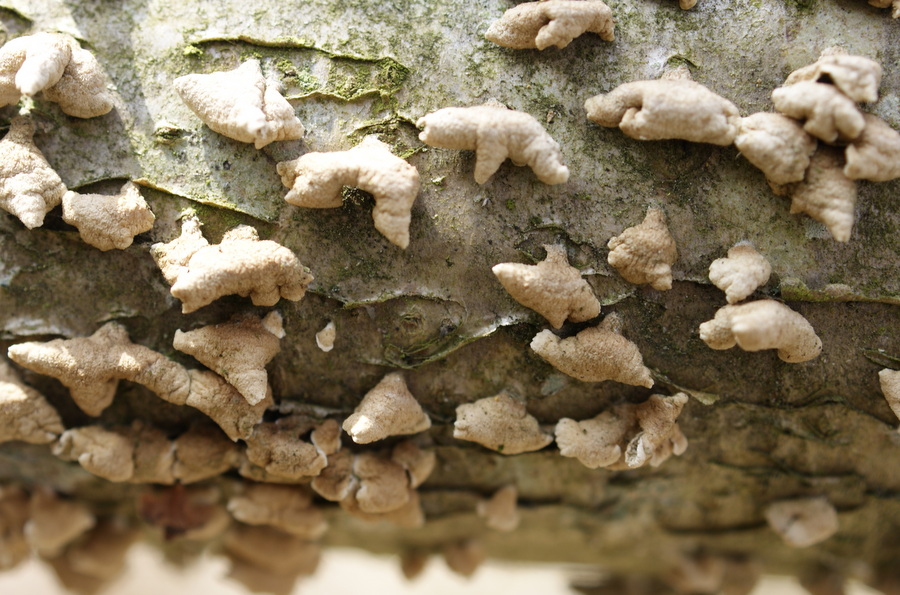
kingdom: Fungi
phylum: Basidiomycota
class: Agaricomycetes
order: Amylocorticiales
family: Amylocorticiaceae
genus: Plicaturopsis
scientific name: Plicaturopsis crispa
